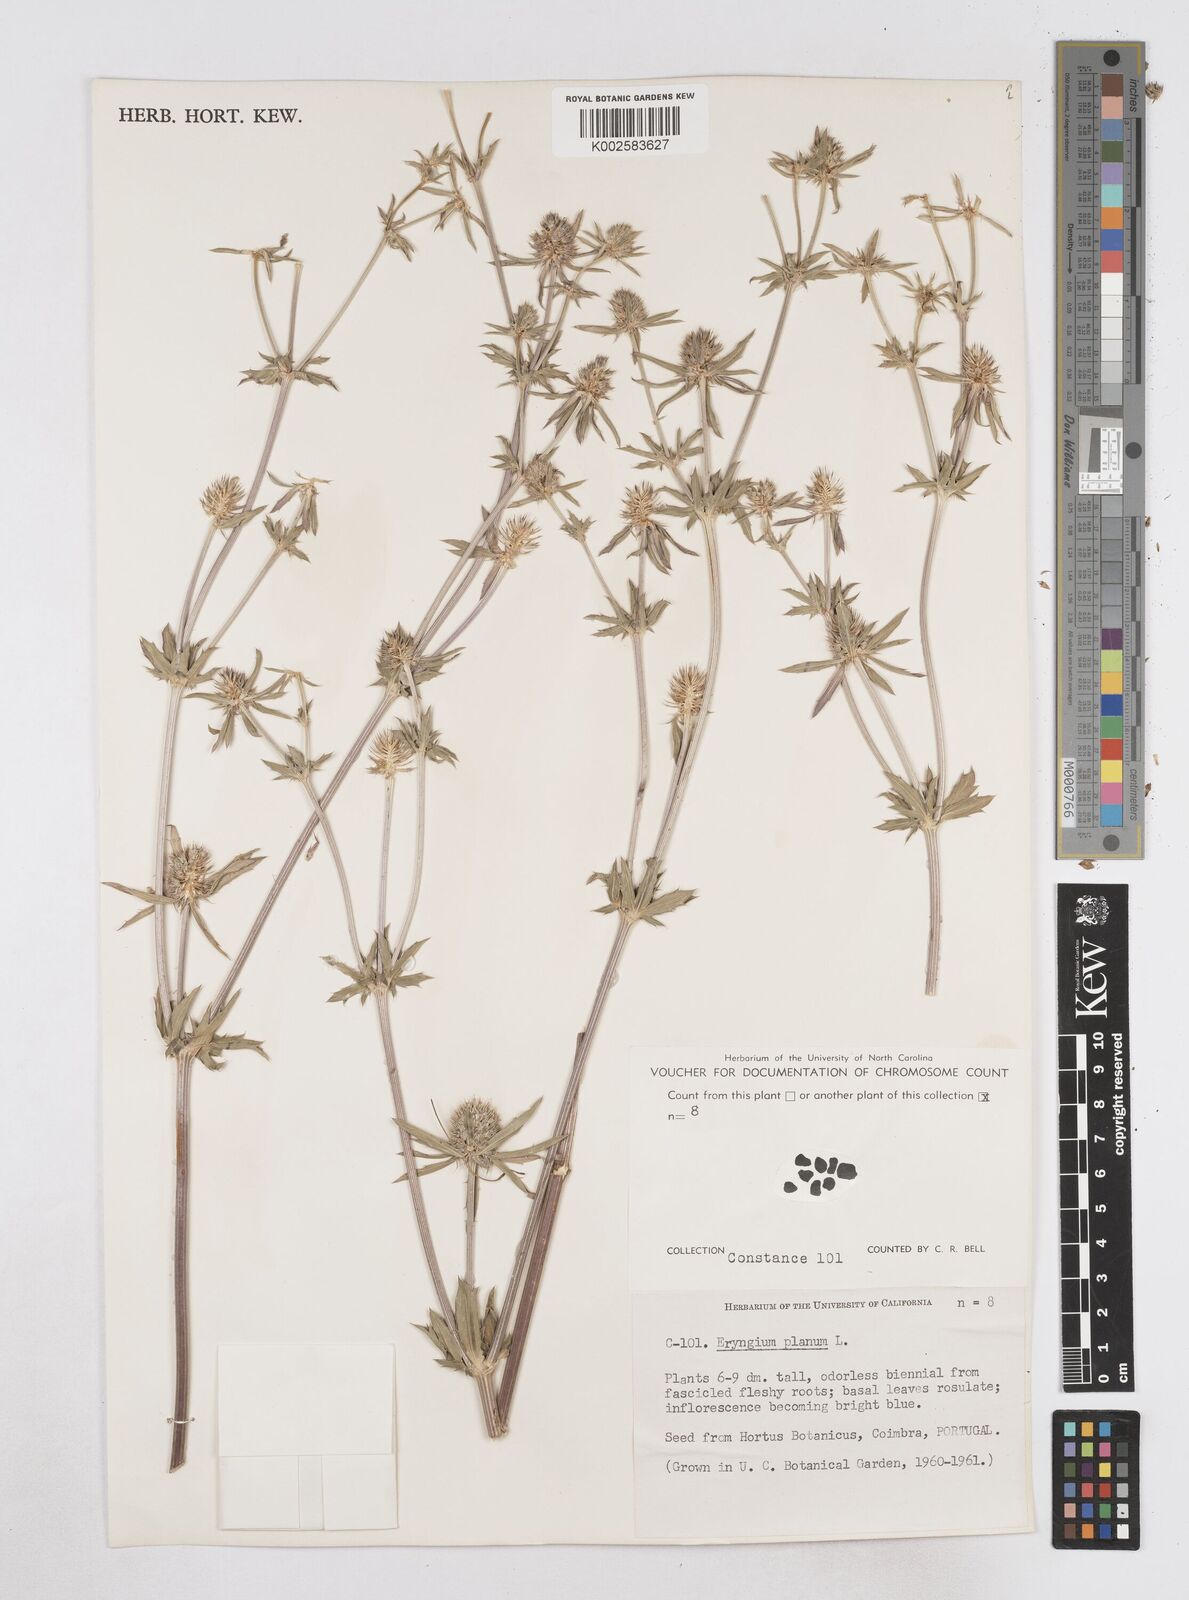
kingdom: Plantae
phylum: Tracheophyta
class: Magnoliopsida
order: Apiales
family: Apiaceae
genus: Eryngium
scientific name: Eryngium planum
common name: Blue eryngo
